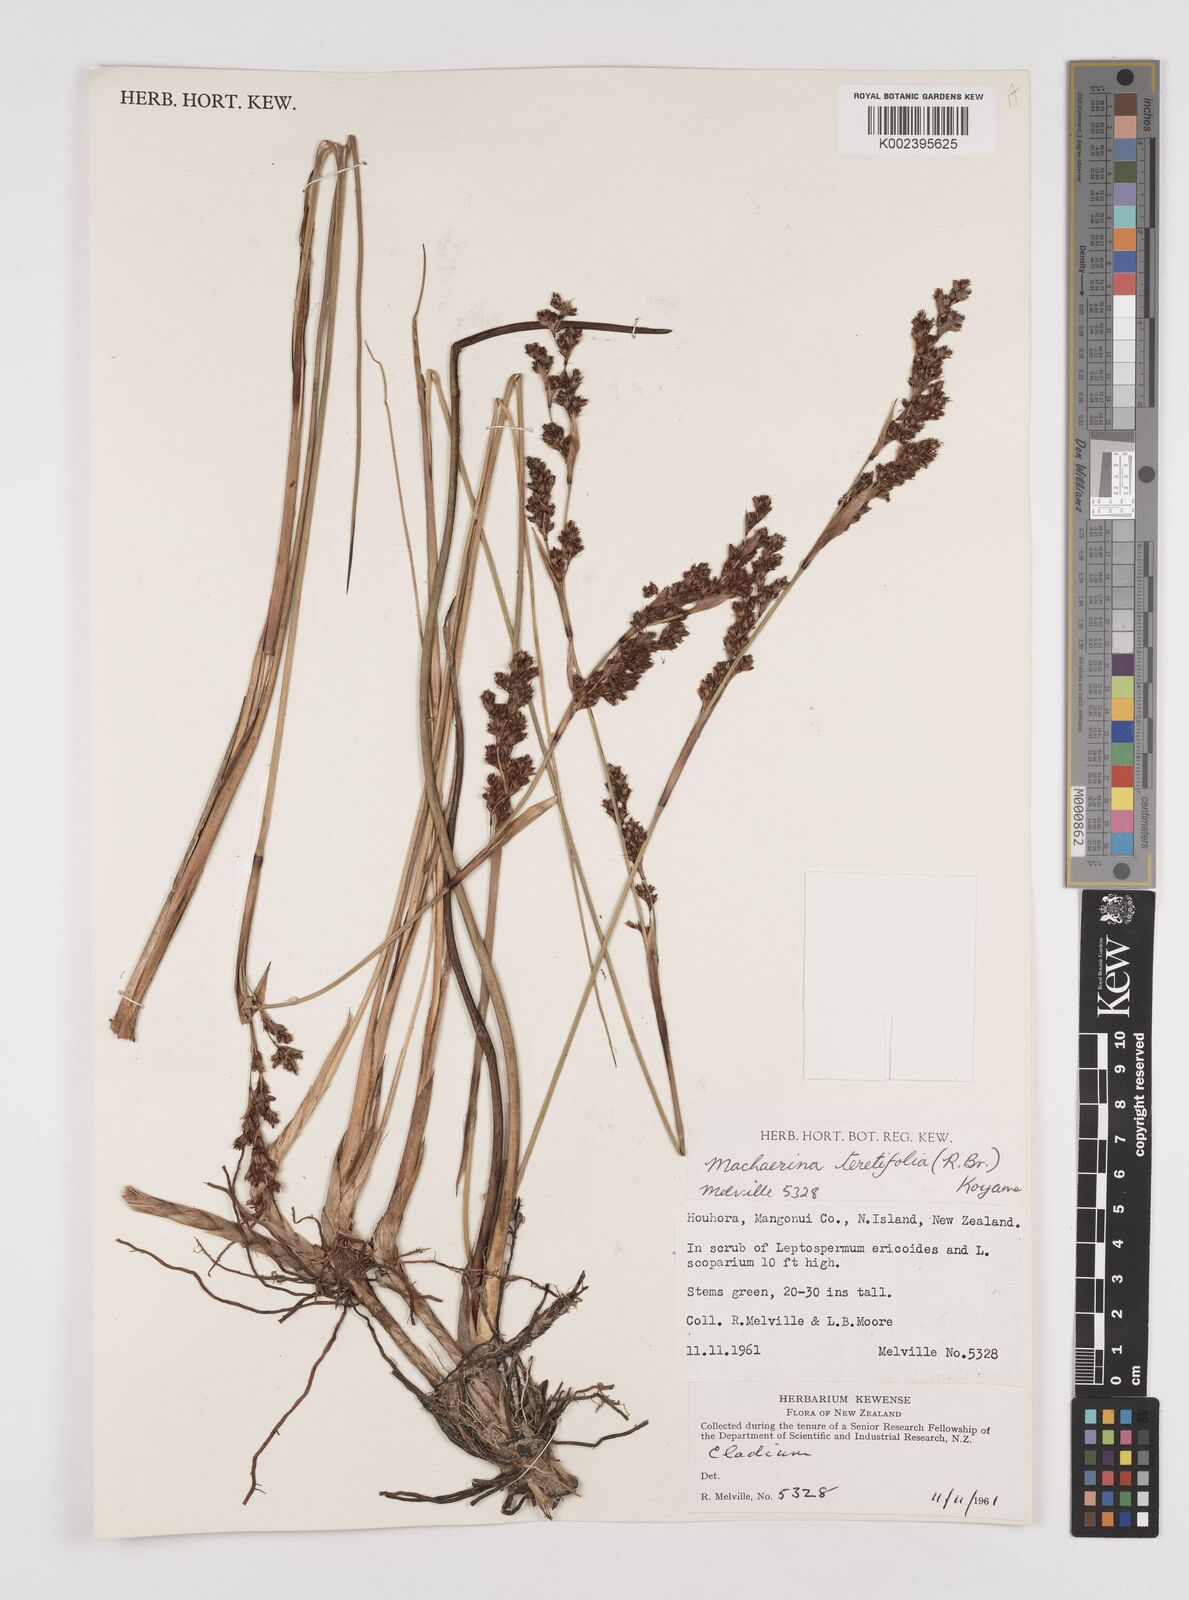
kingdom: Plantae
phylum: Tracheophyta
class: Liliopsida
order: Poales
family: Cyperaceae
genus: Machaerina
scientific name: Machaerina teretifolia
